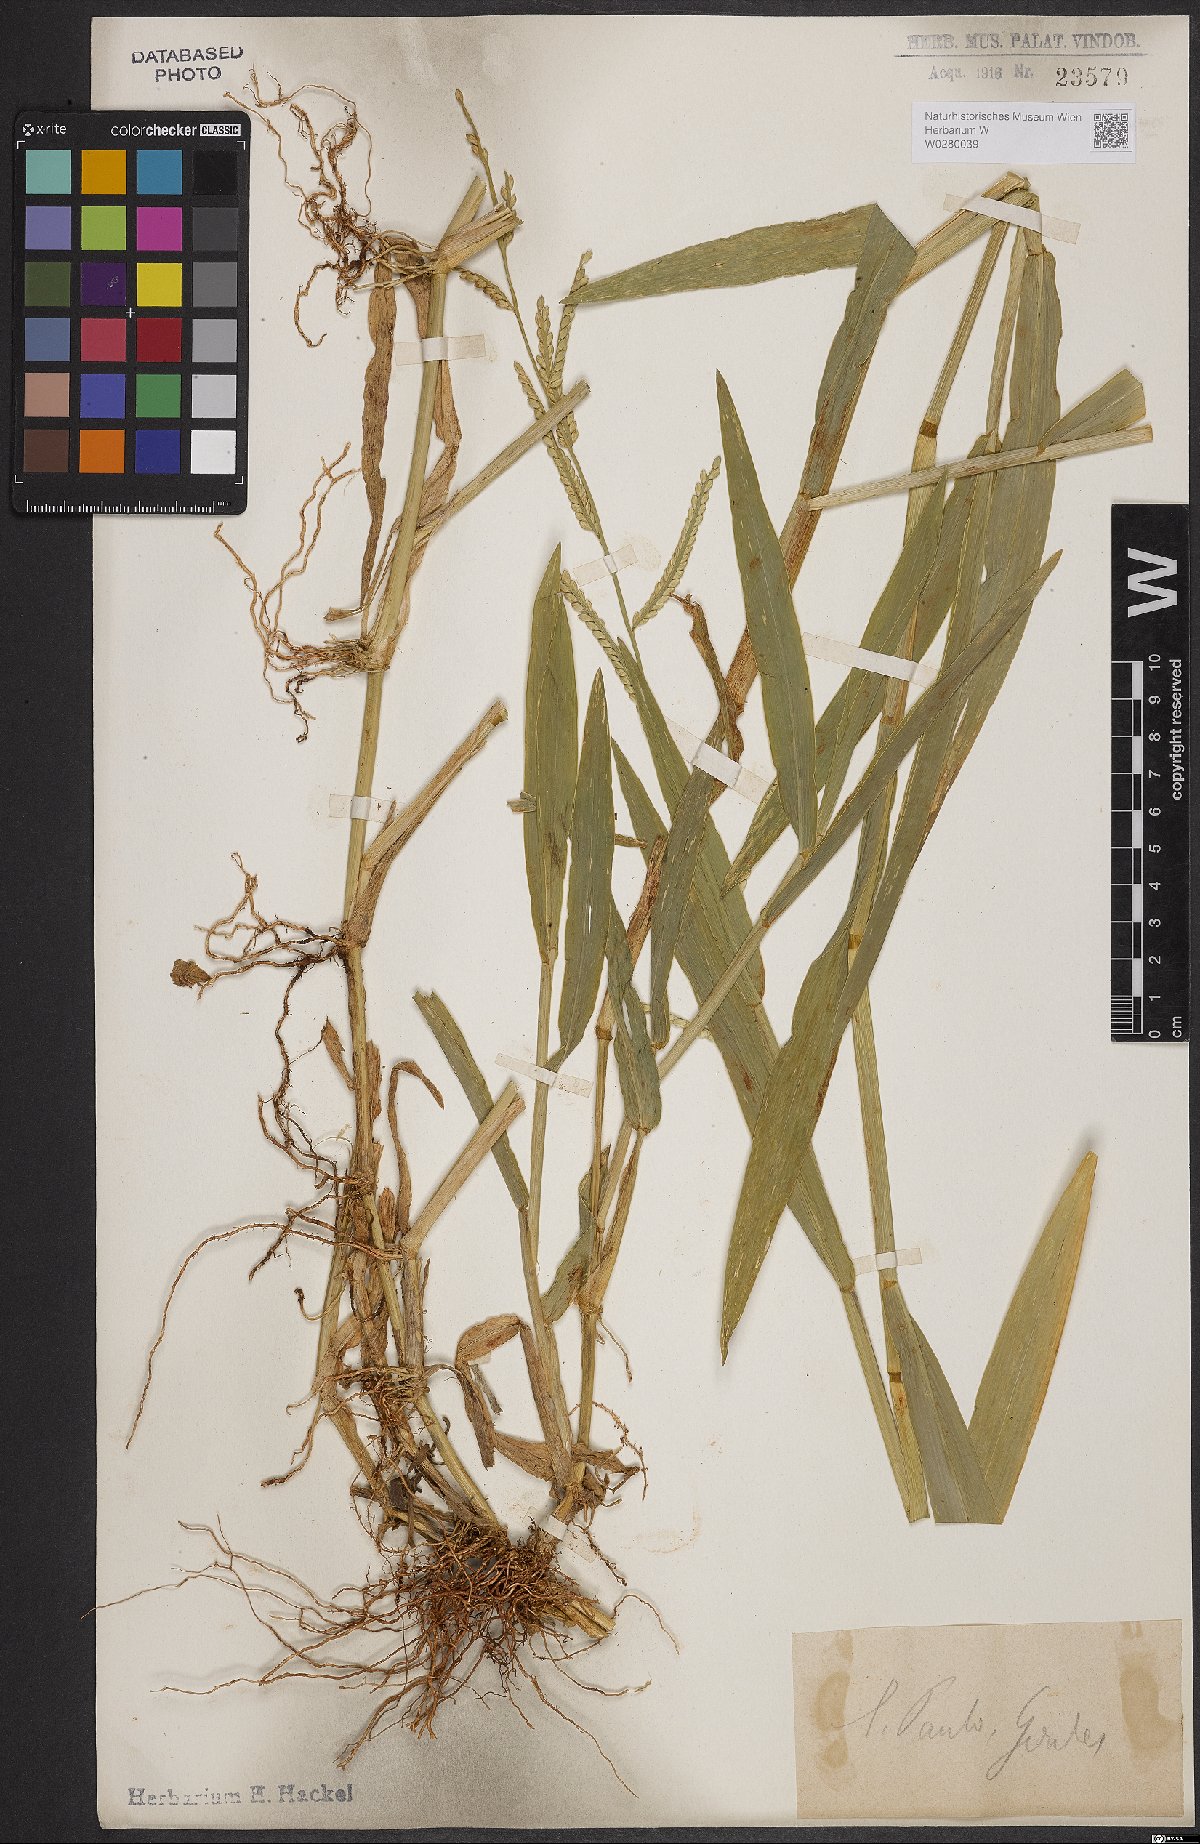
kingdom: Plantae
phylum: Tracheophyta
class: Liliopsida
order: Poales
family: Poaceae
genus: Urochloa
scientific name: Urochloa plantaginea
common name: Plantain signalgrass
